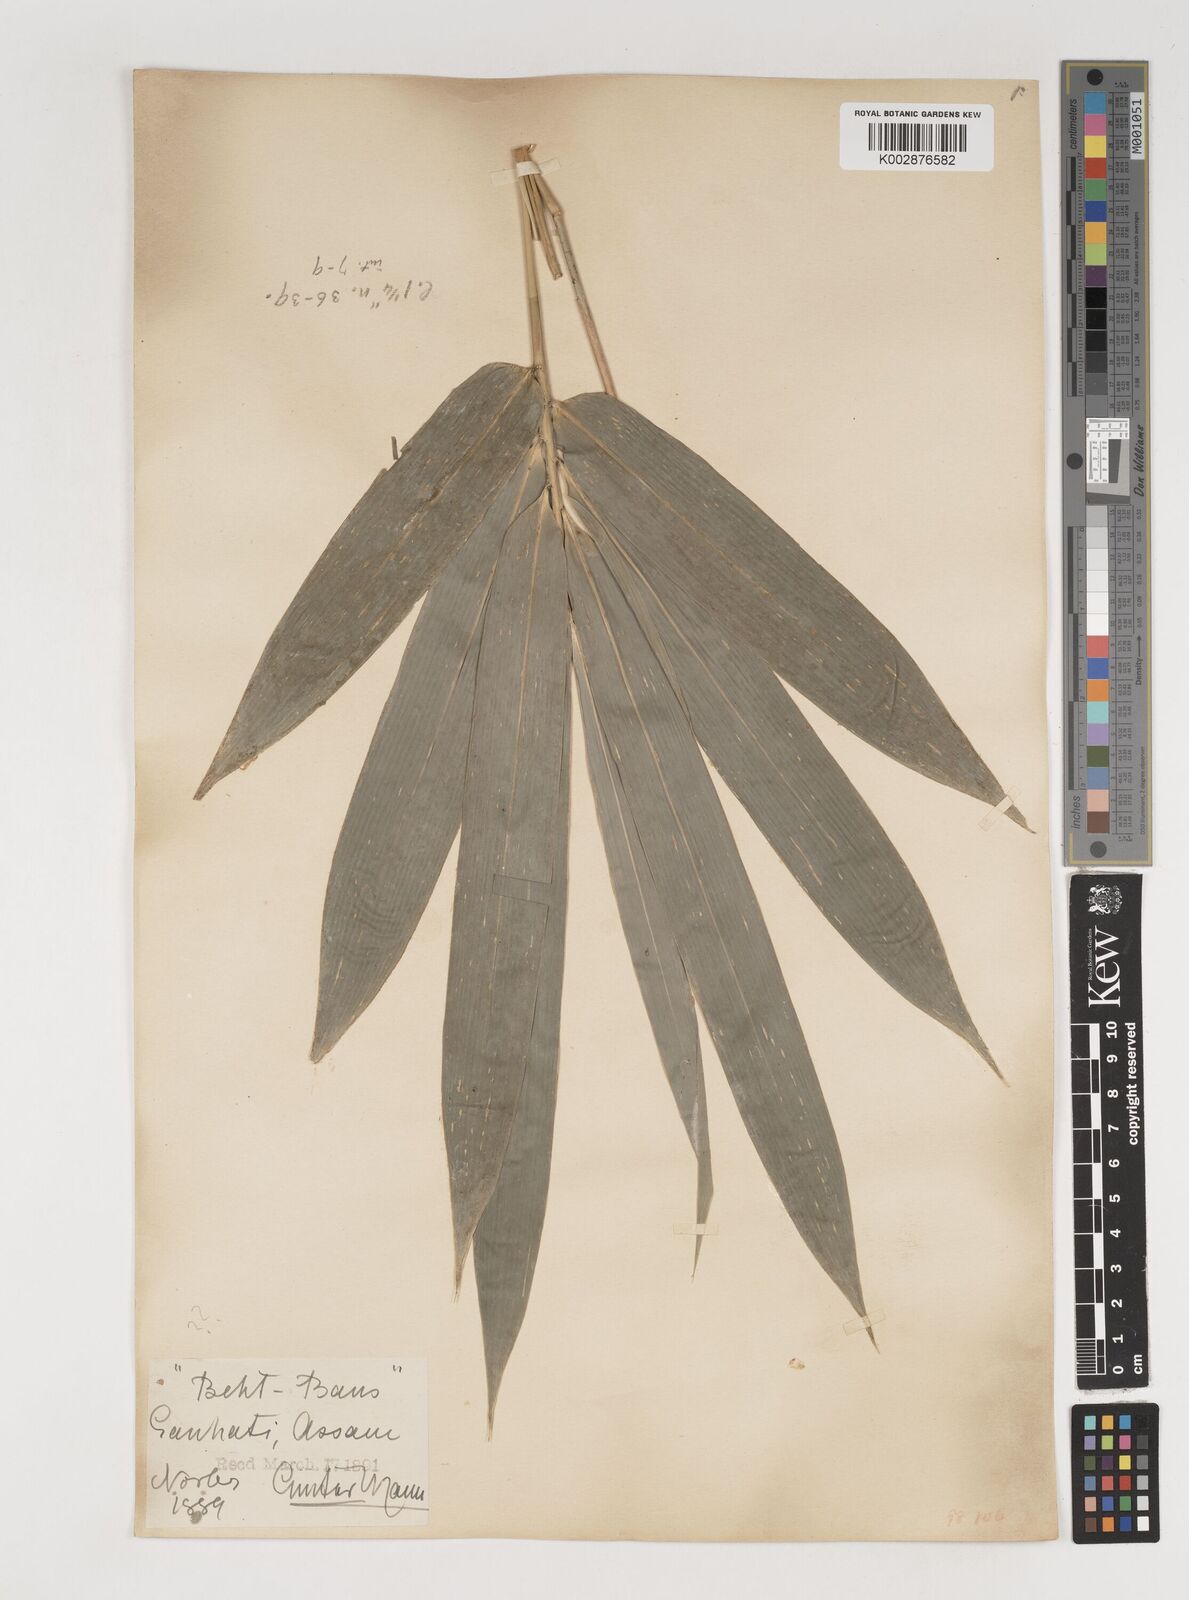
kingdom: Plantae
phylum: Tracheophyta
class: Liliopsida
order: Poales
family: Poaceae
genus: Bambusa
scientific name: Bambusa nutans
